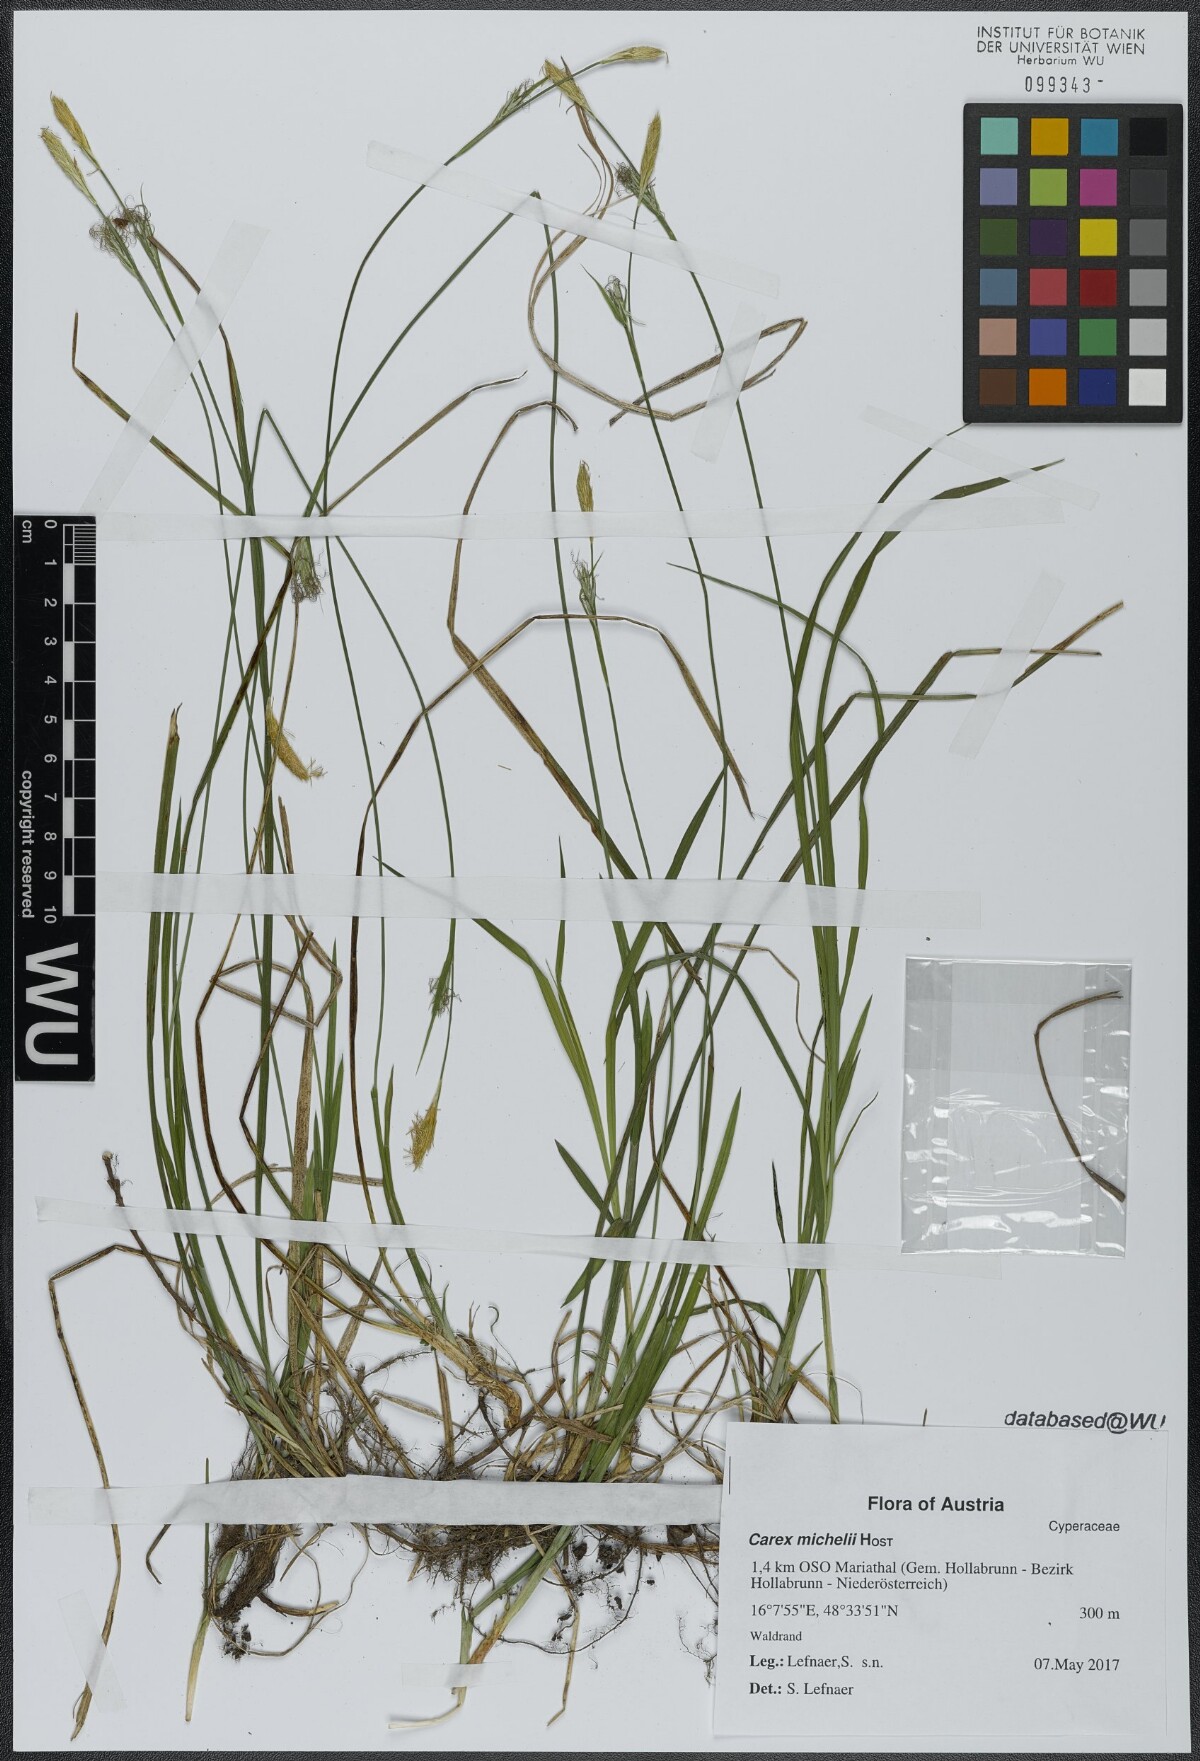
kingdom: Plantae
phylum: Tracheophyta
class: Liliopsida
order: Poales
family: Cyperaceae
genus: Carex
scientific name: Carex michelii
